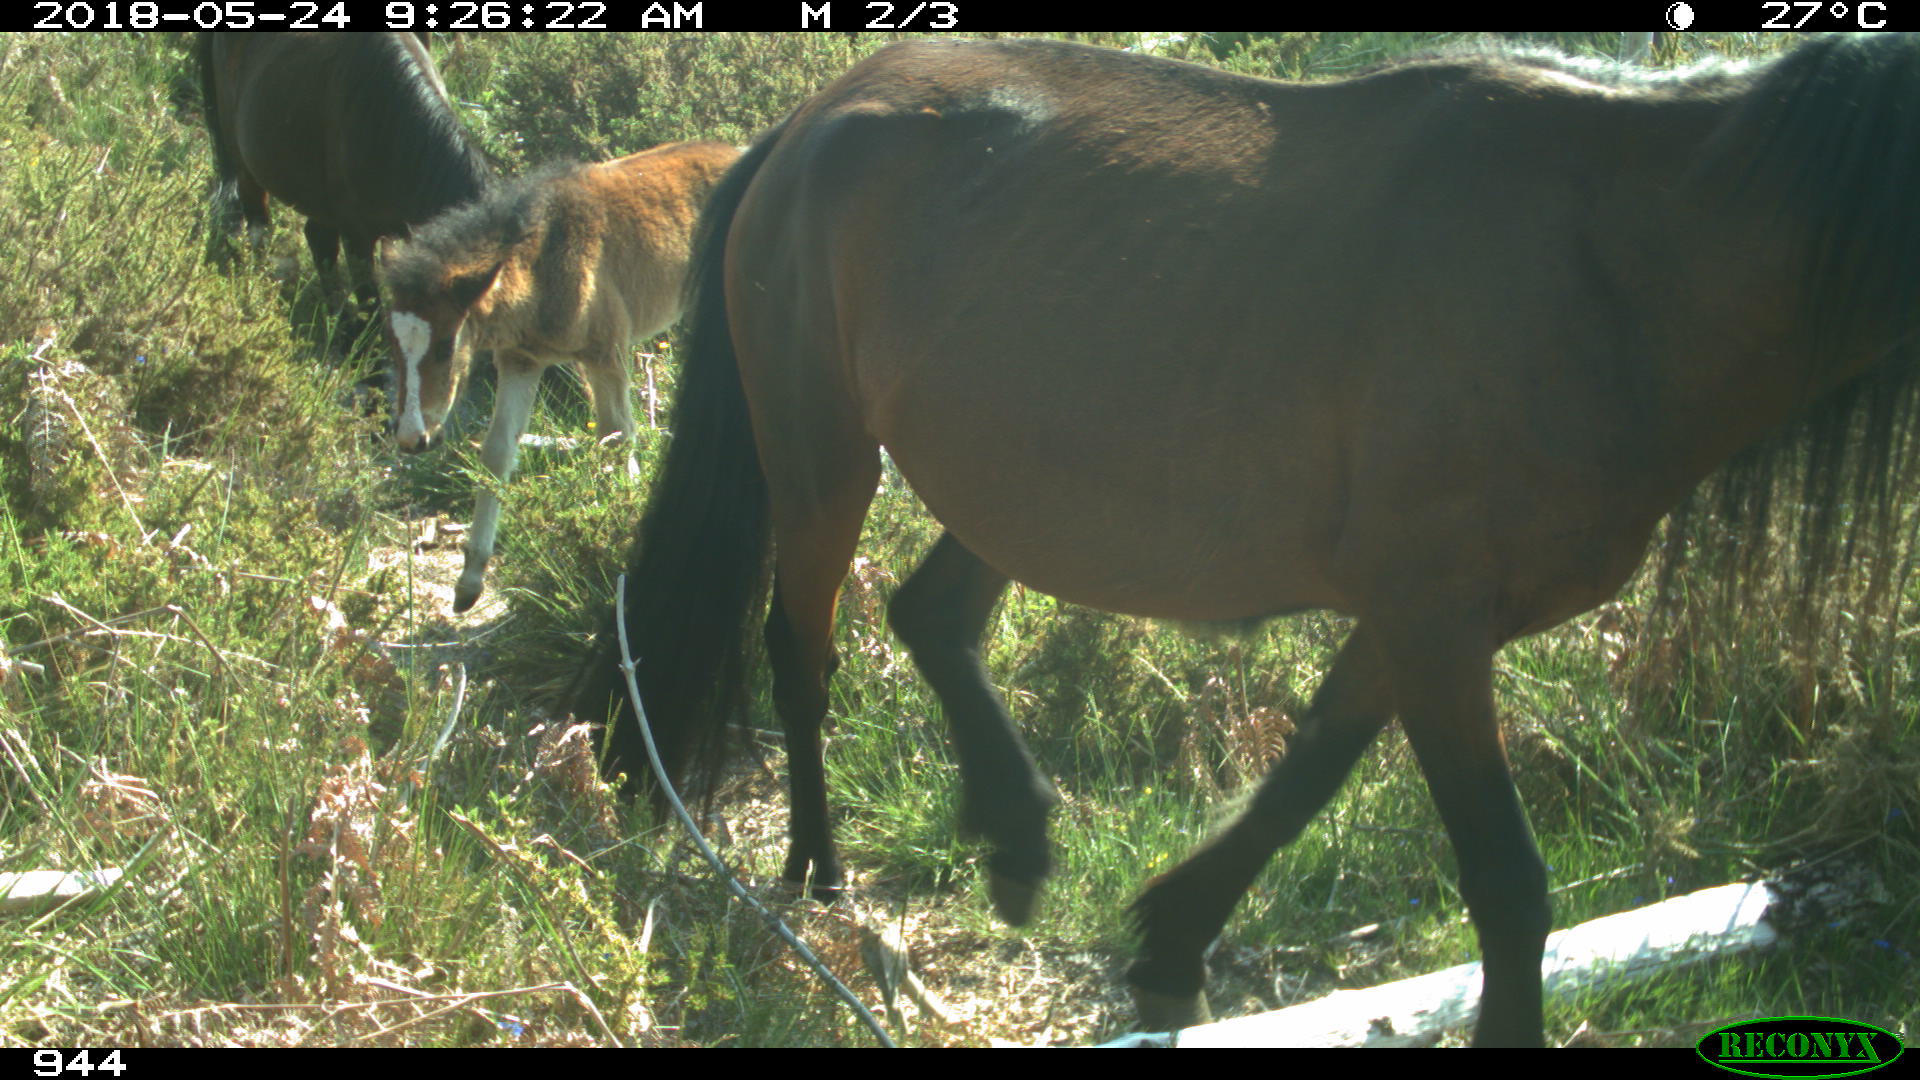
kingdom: Animalia
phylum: Chordata
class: Mammalia
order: Perissodactyla
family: Equidae
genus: Equus
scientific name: Equus caballus
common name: Horse
